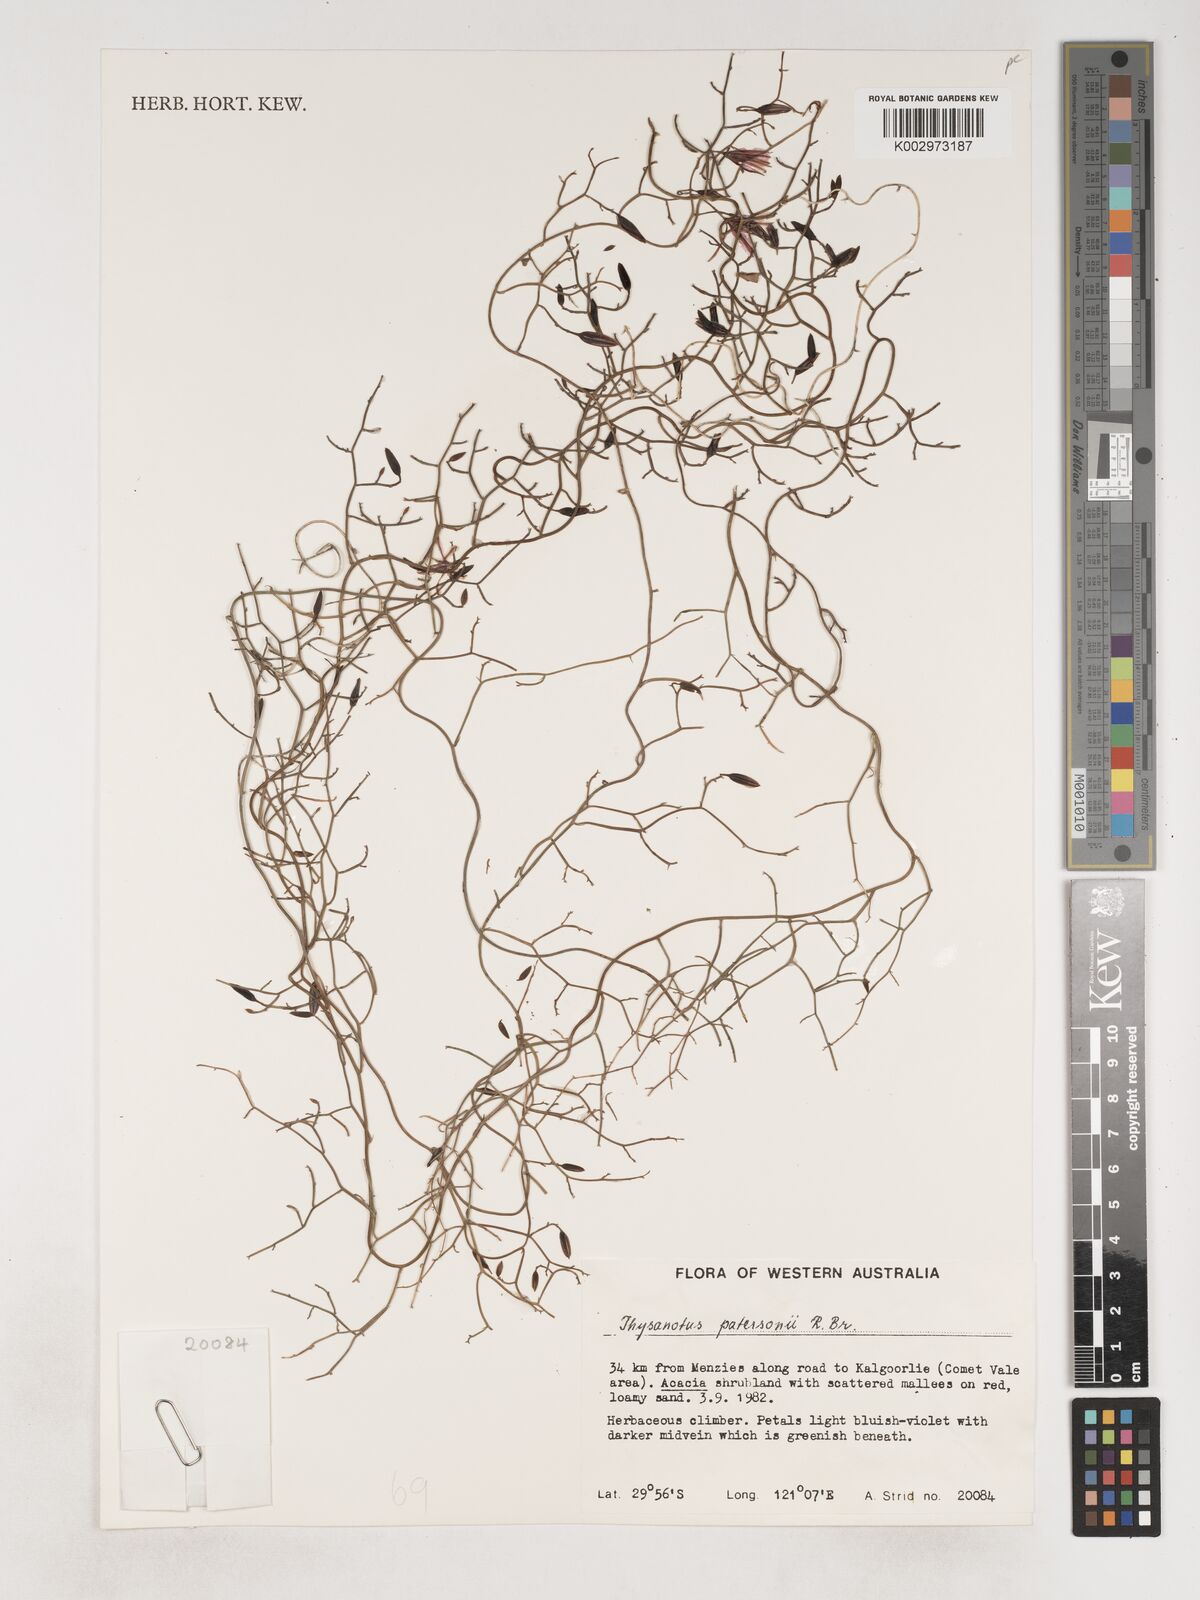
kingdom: Plantae
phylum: Tracheophyta
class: Liliopsida
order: Asparagales
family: Asparagaceae
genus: Thysanotus
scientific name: Thysanotus patersonii
